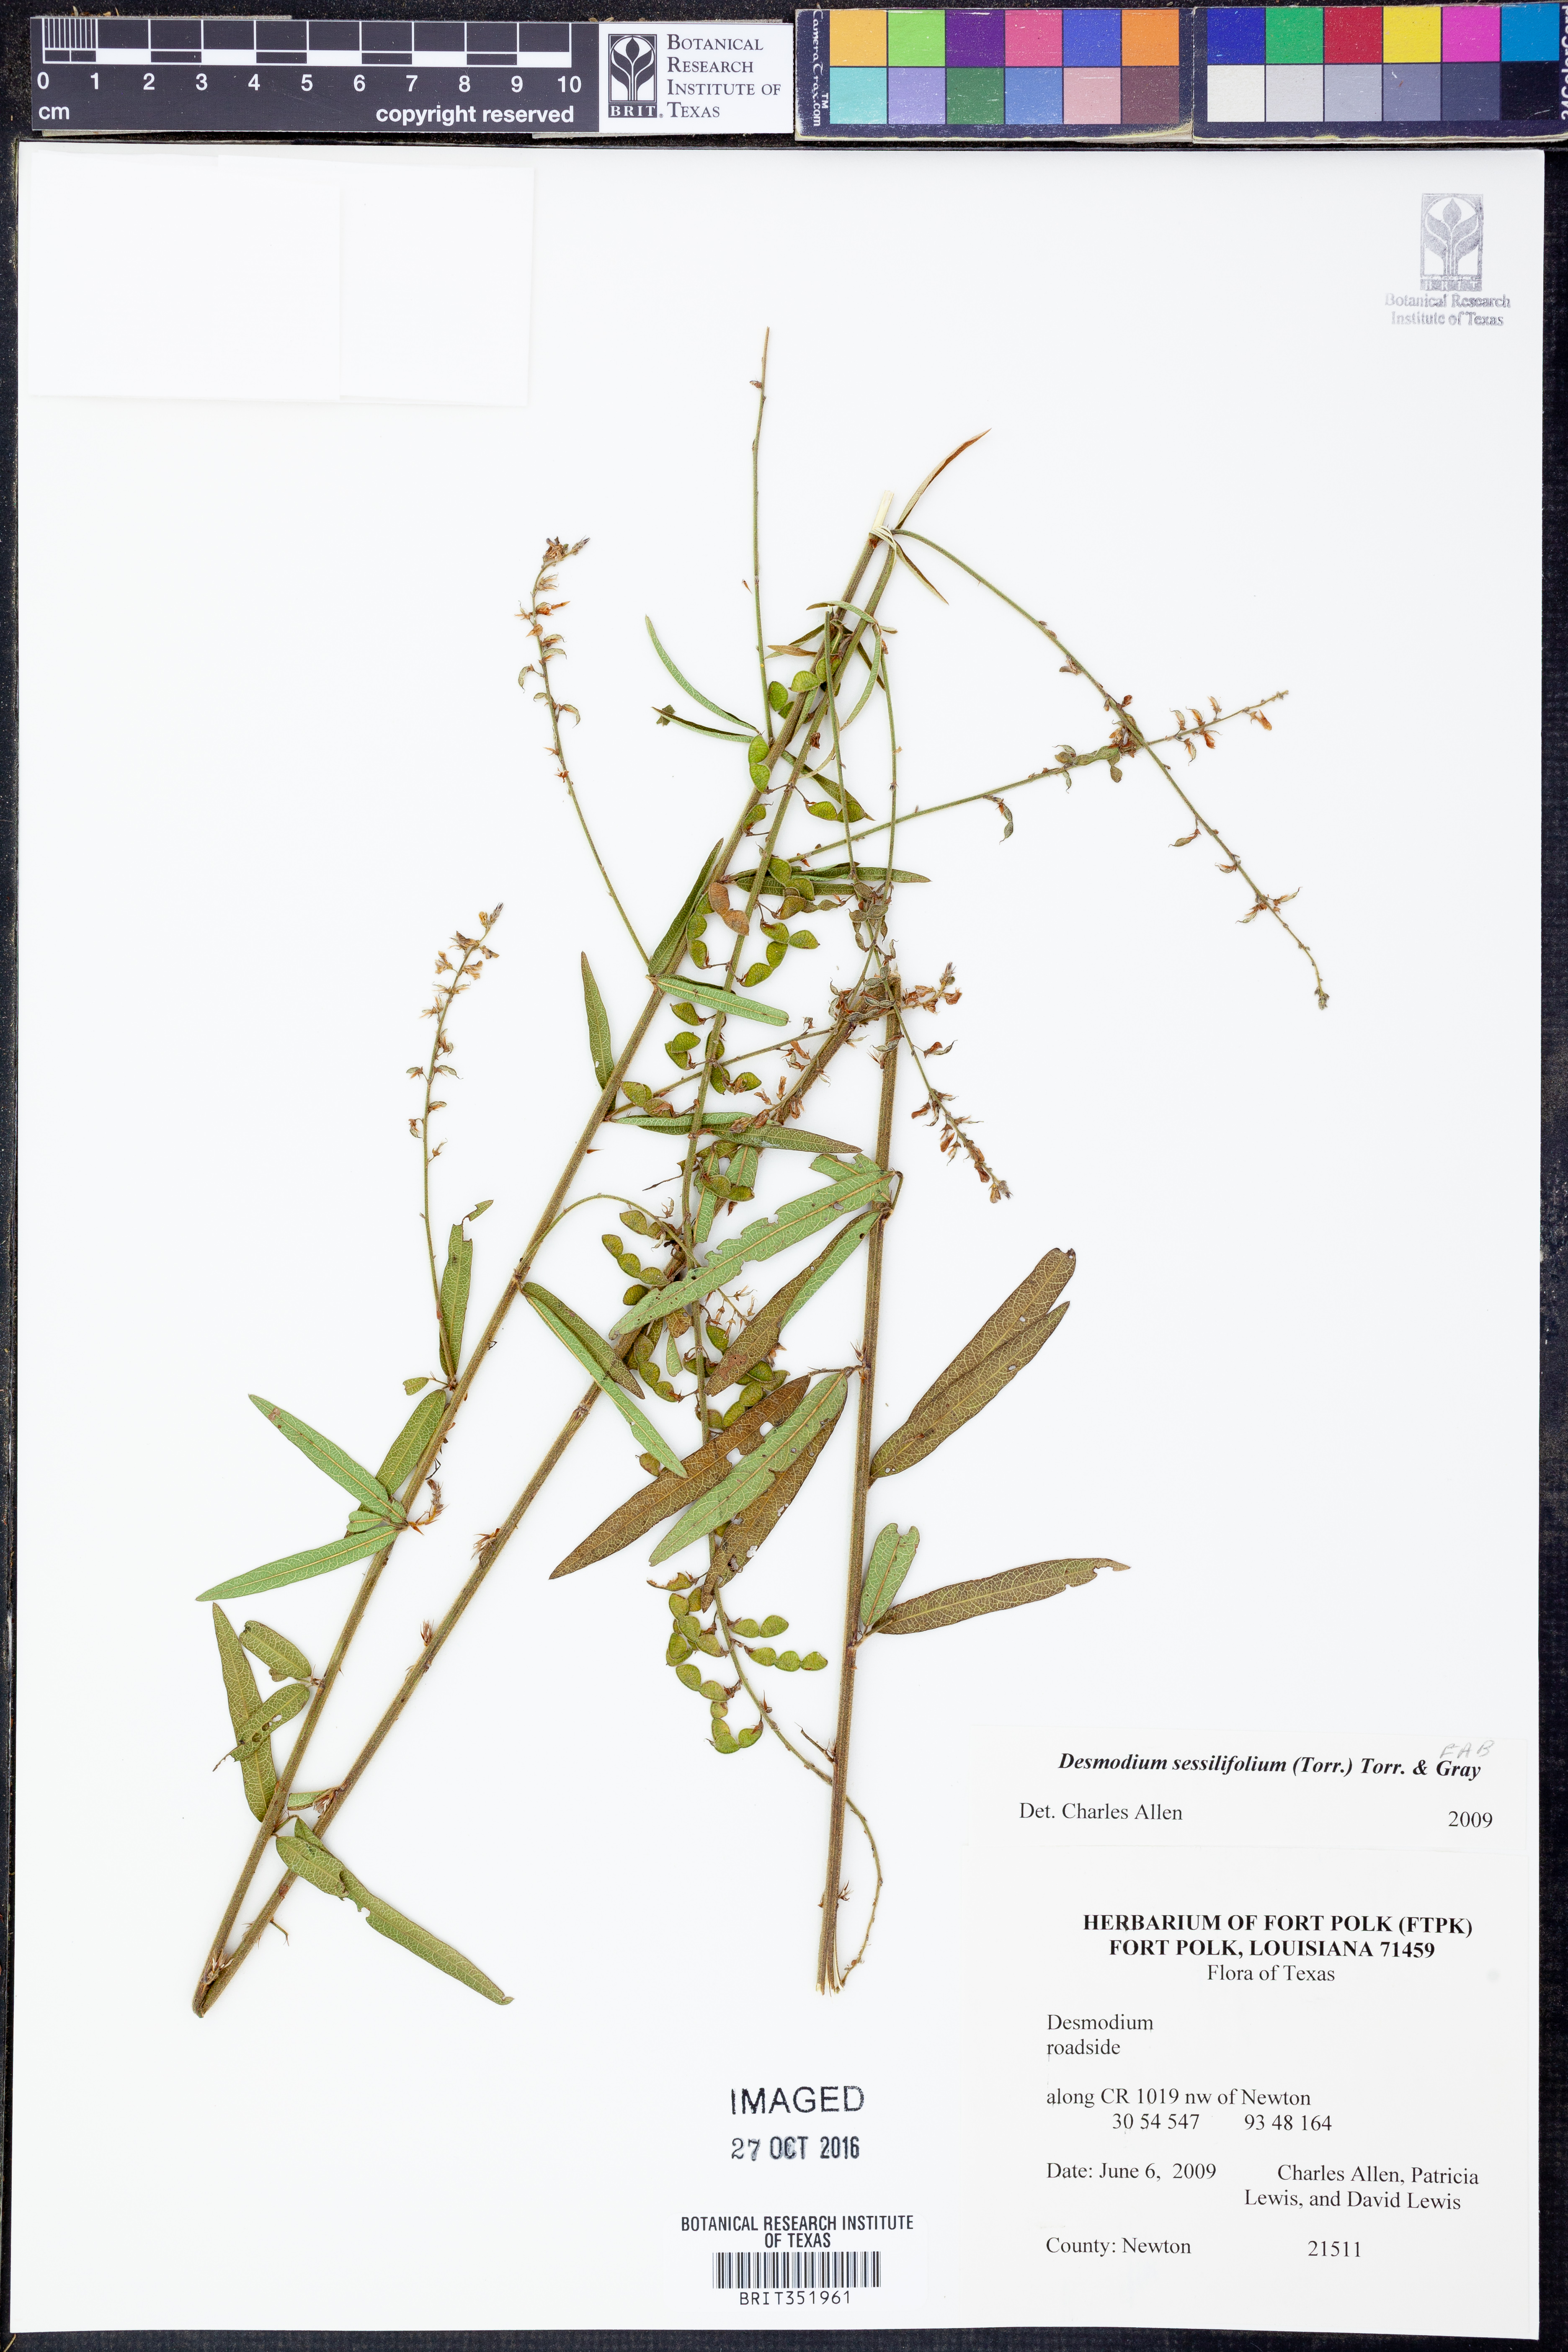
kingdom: Plantae
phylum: Tracheophyta
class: Magnoliopsida
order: Fabales
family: Fabaceae
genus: Desmodium
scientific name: Desmodium sessilifolium
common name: Sessile tick-clover
